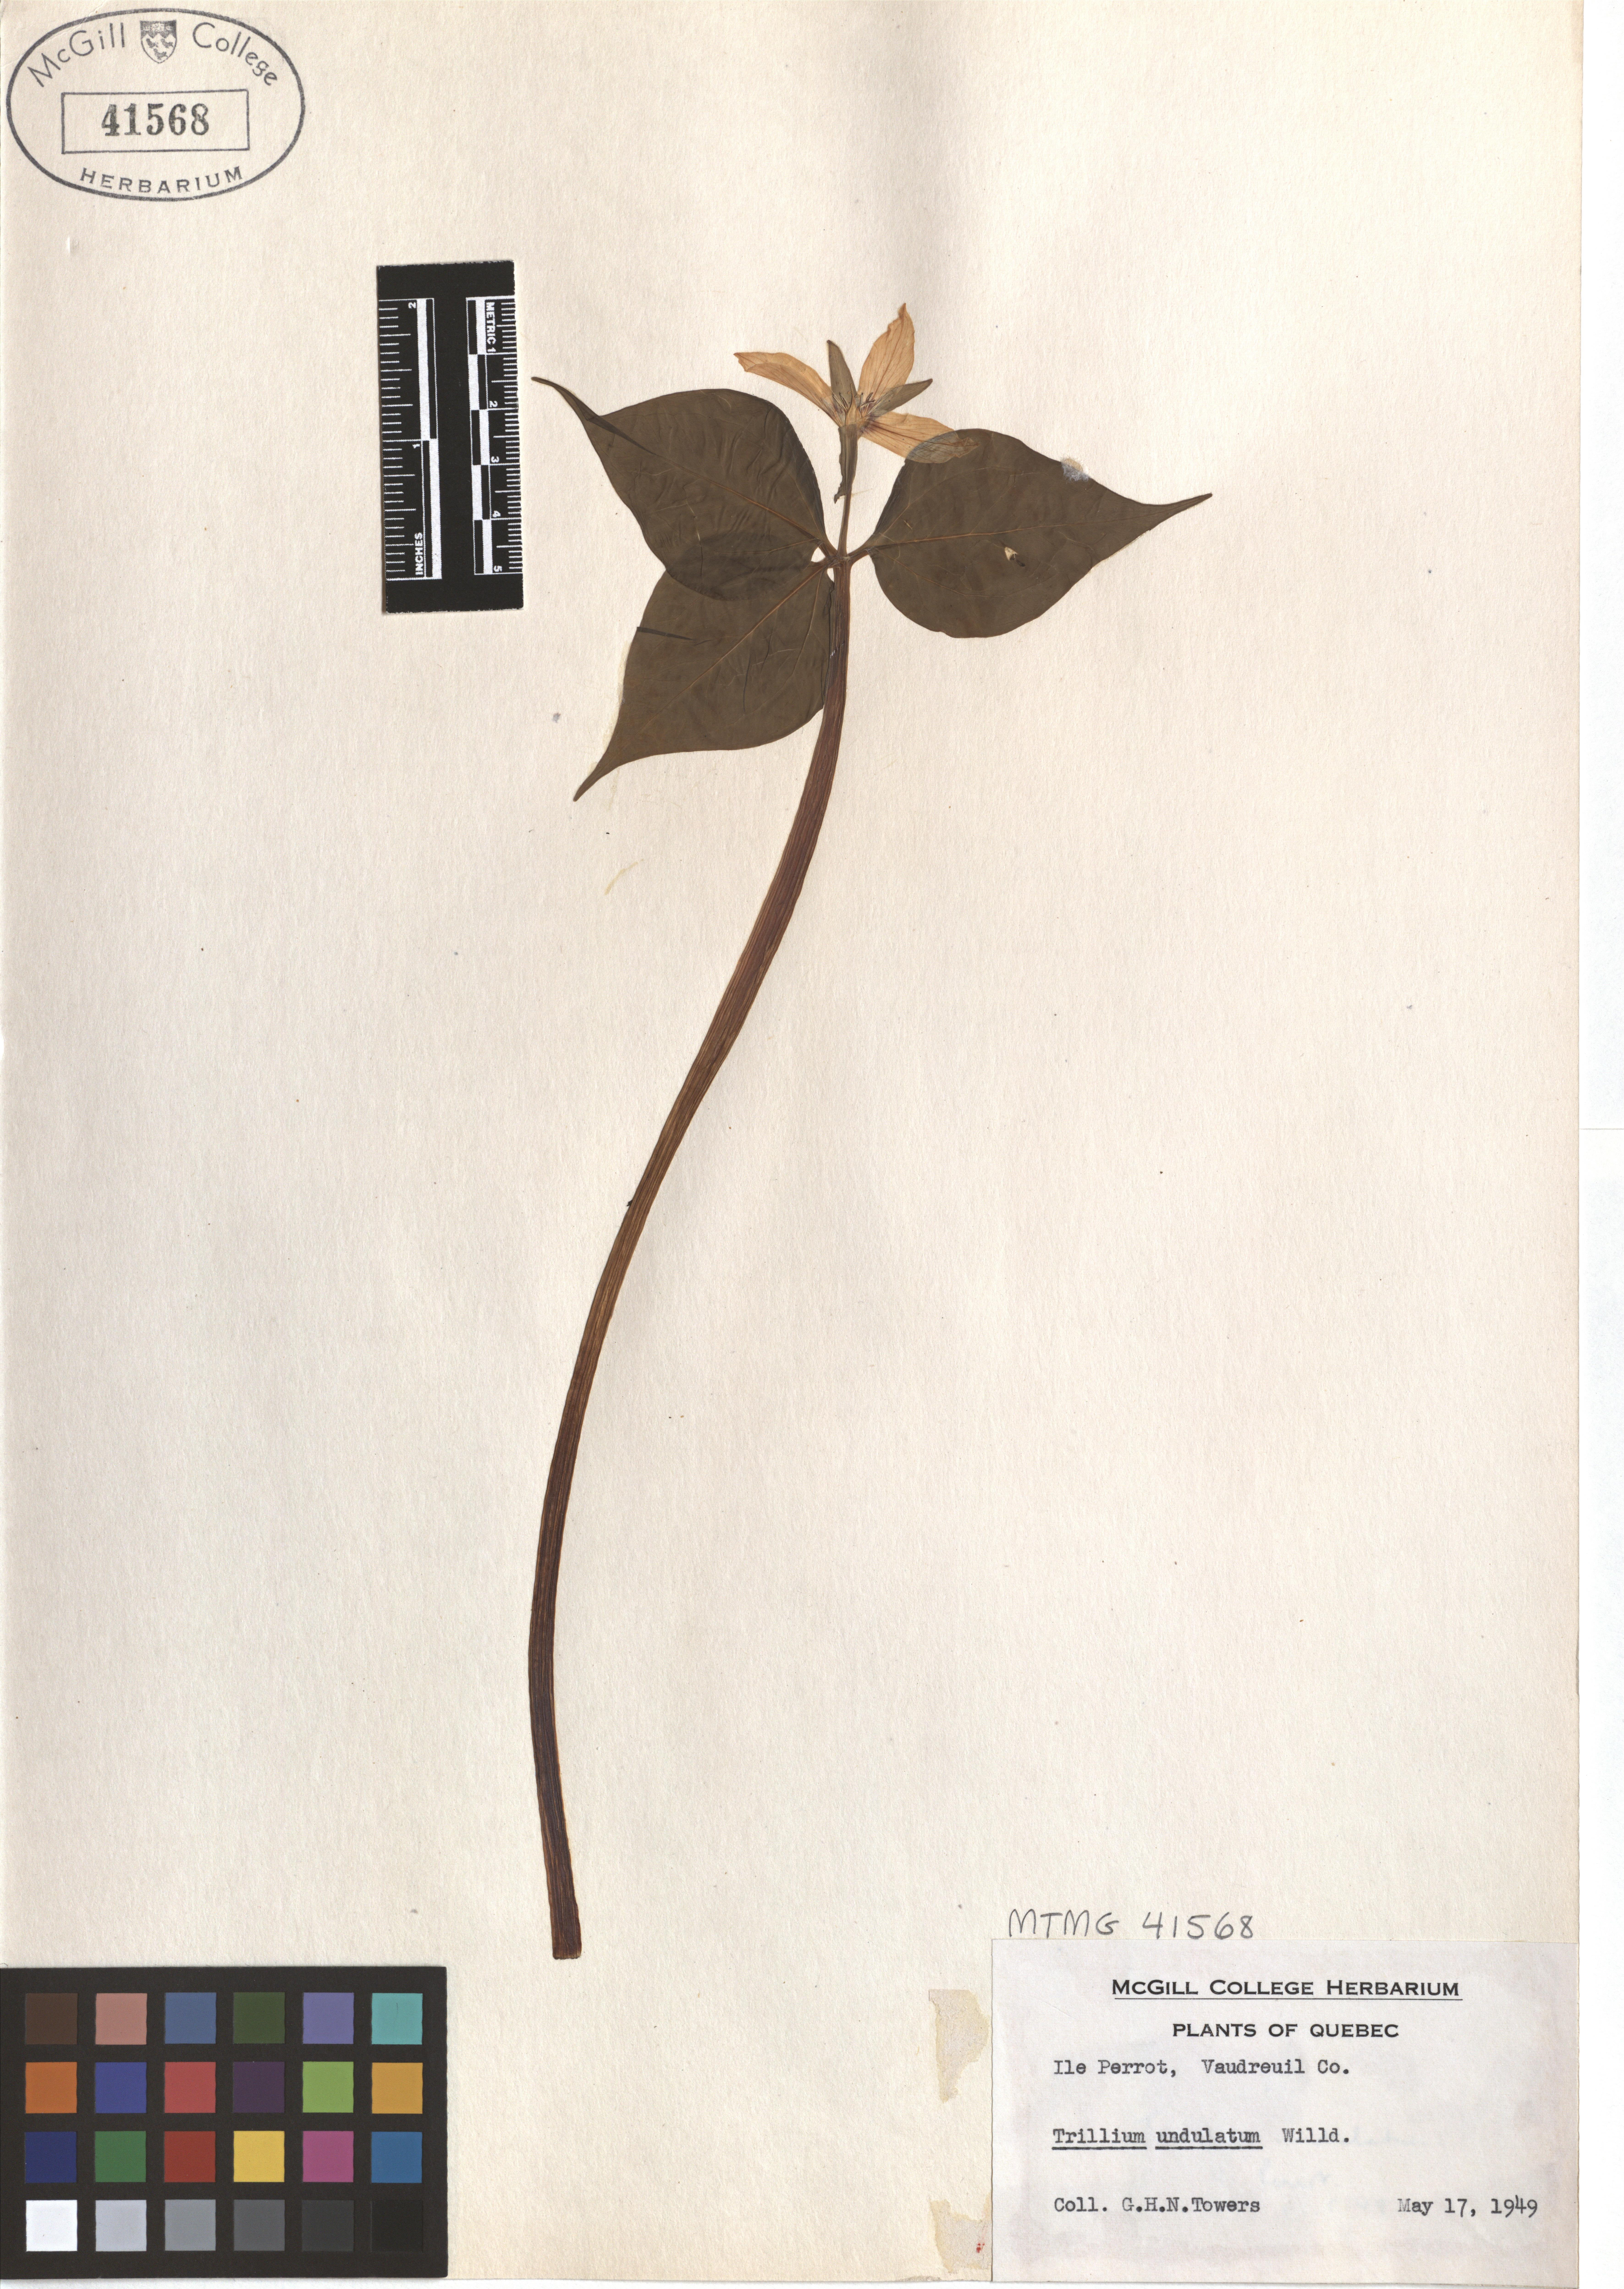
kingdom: Plantae
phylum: Tracheophyta
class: Liliopsida
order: Liliales
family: Melanthiaceae
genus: Trillium
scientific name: Trillium undulatum
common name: Paint trillium
